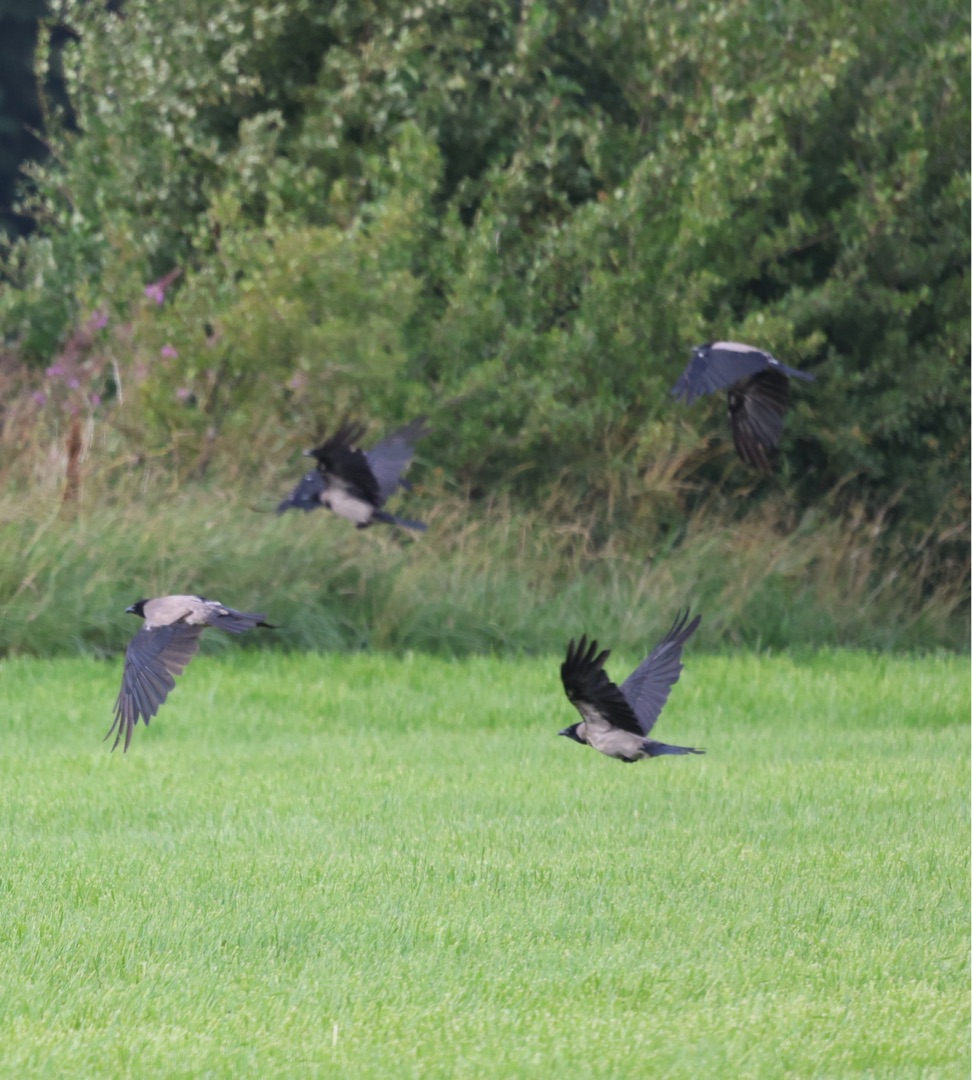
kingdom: Animalia
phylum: Chordata
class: Aves
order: Passeriformes
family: Corvidae
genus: Corvus
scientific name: Corvus cornix
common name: Gråkrage
